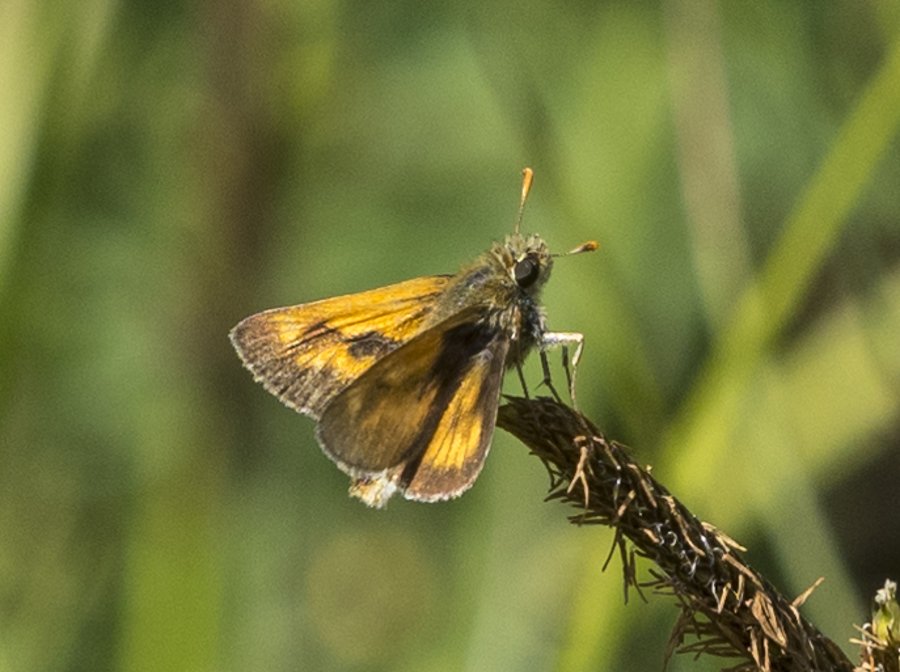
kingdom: Animalia
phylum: Arthropoda
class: Insecta
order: Lepidoptera
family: Hesperiidae
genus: Polites
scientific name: Polites
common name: Long Dash Skipper
